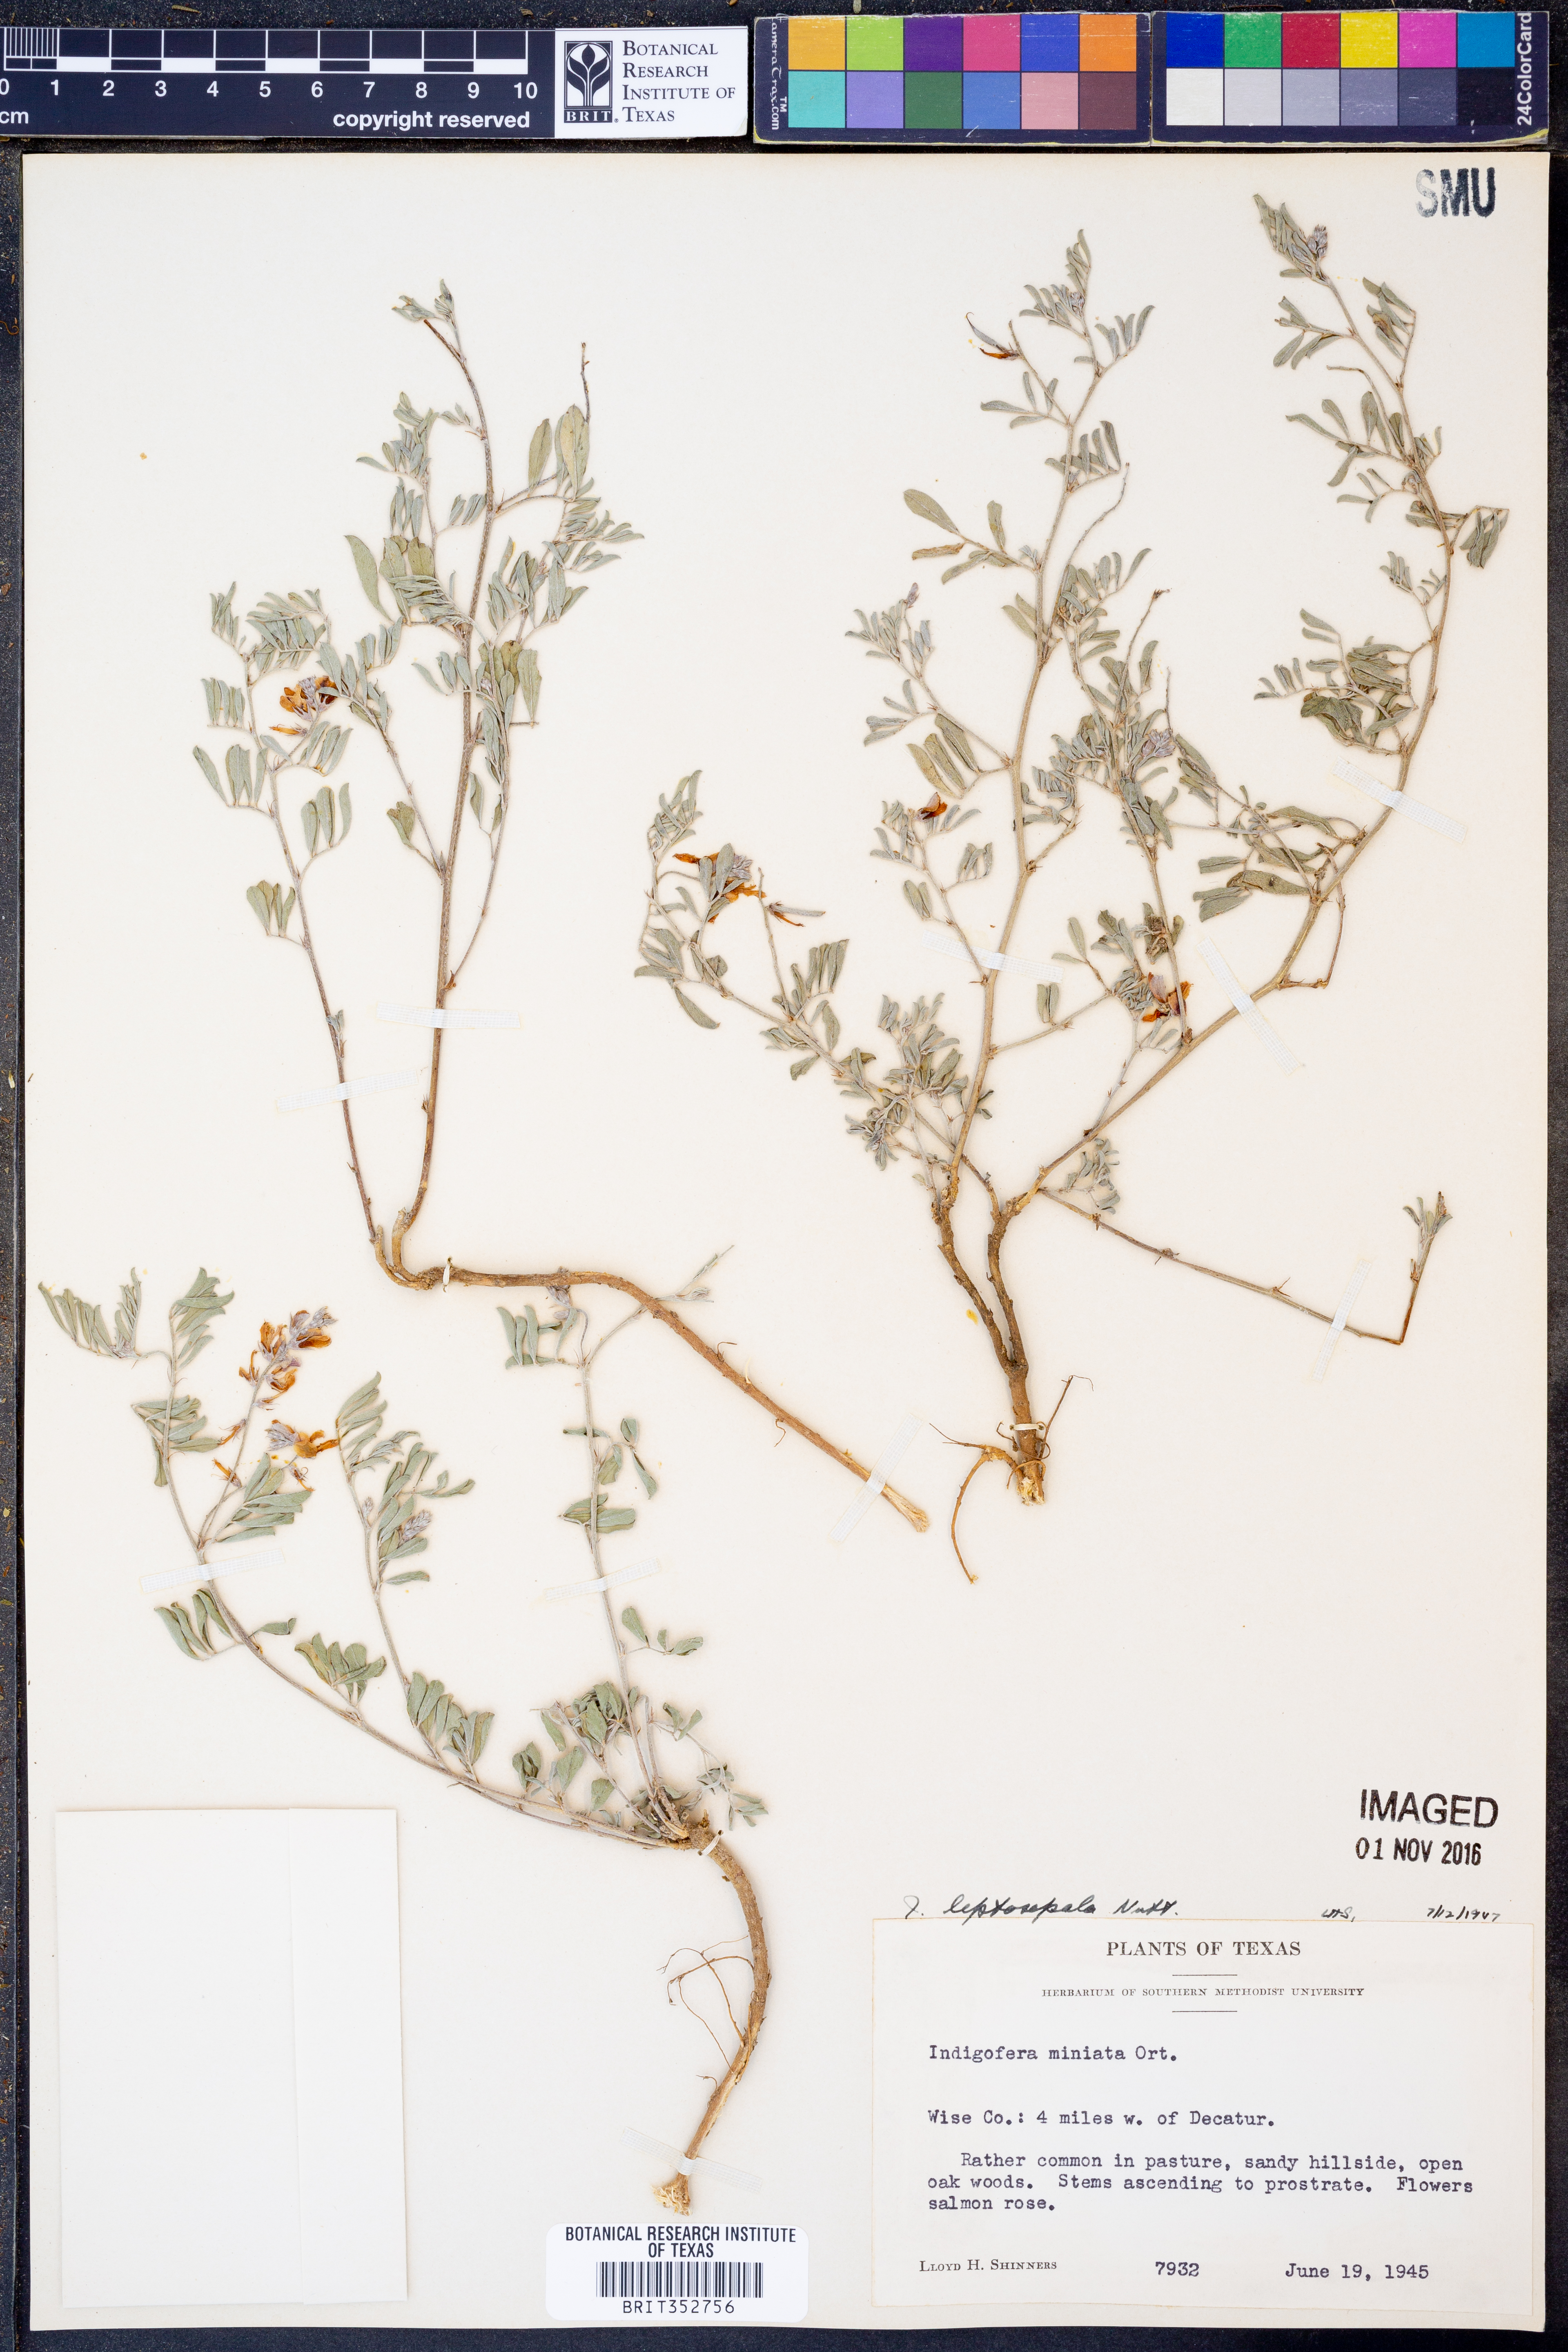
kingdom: Plantae
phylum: Tracheophyta
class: Magnoliopsida
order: Fabales
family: Fabaceae
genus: Indigofera
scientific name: Indigofera argutidens
